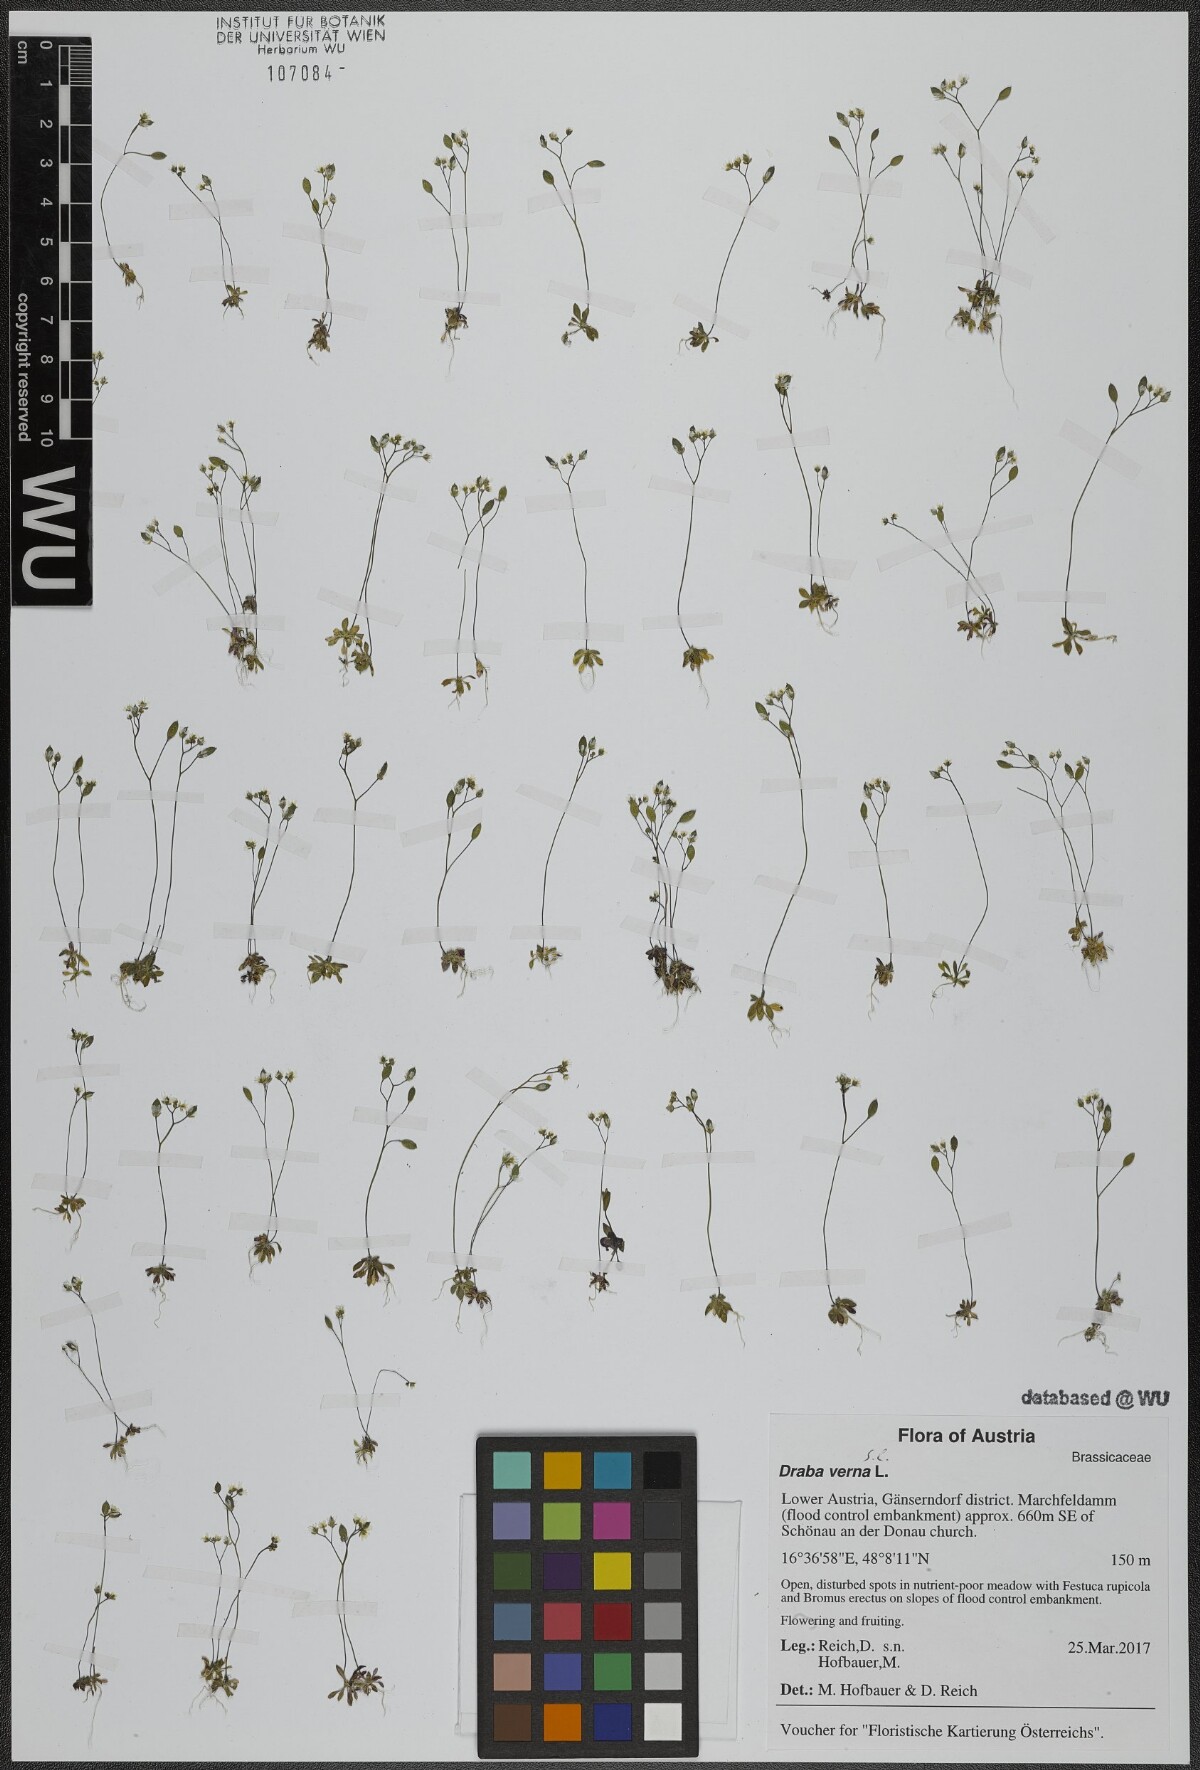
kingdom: Plantae
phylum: Tracheophyta
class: Magnoliopsida
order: Brassicales
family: Brassicaceae
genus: Draba
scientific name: Draba verna
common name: Spring draba
